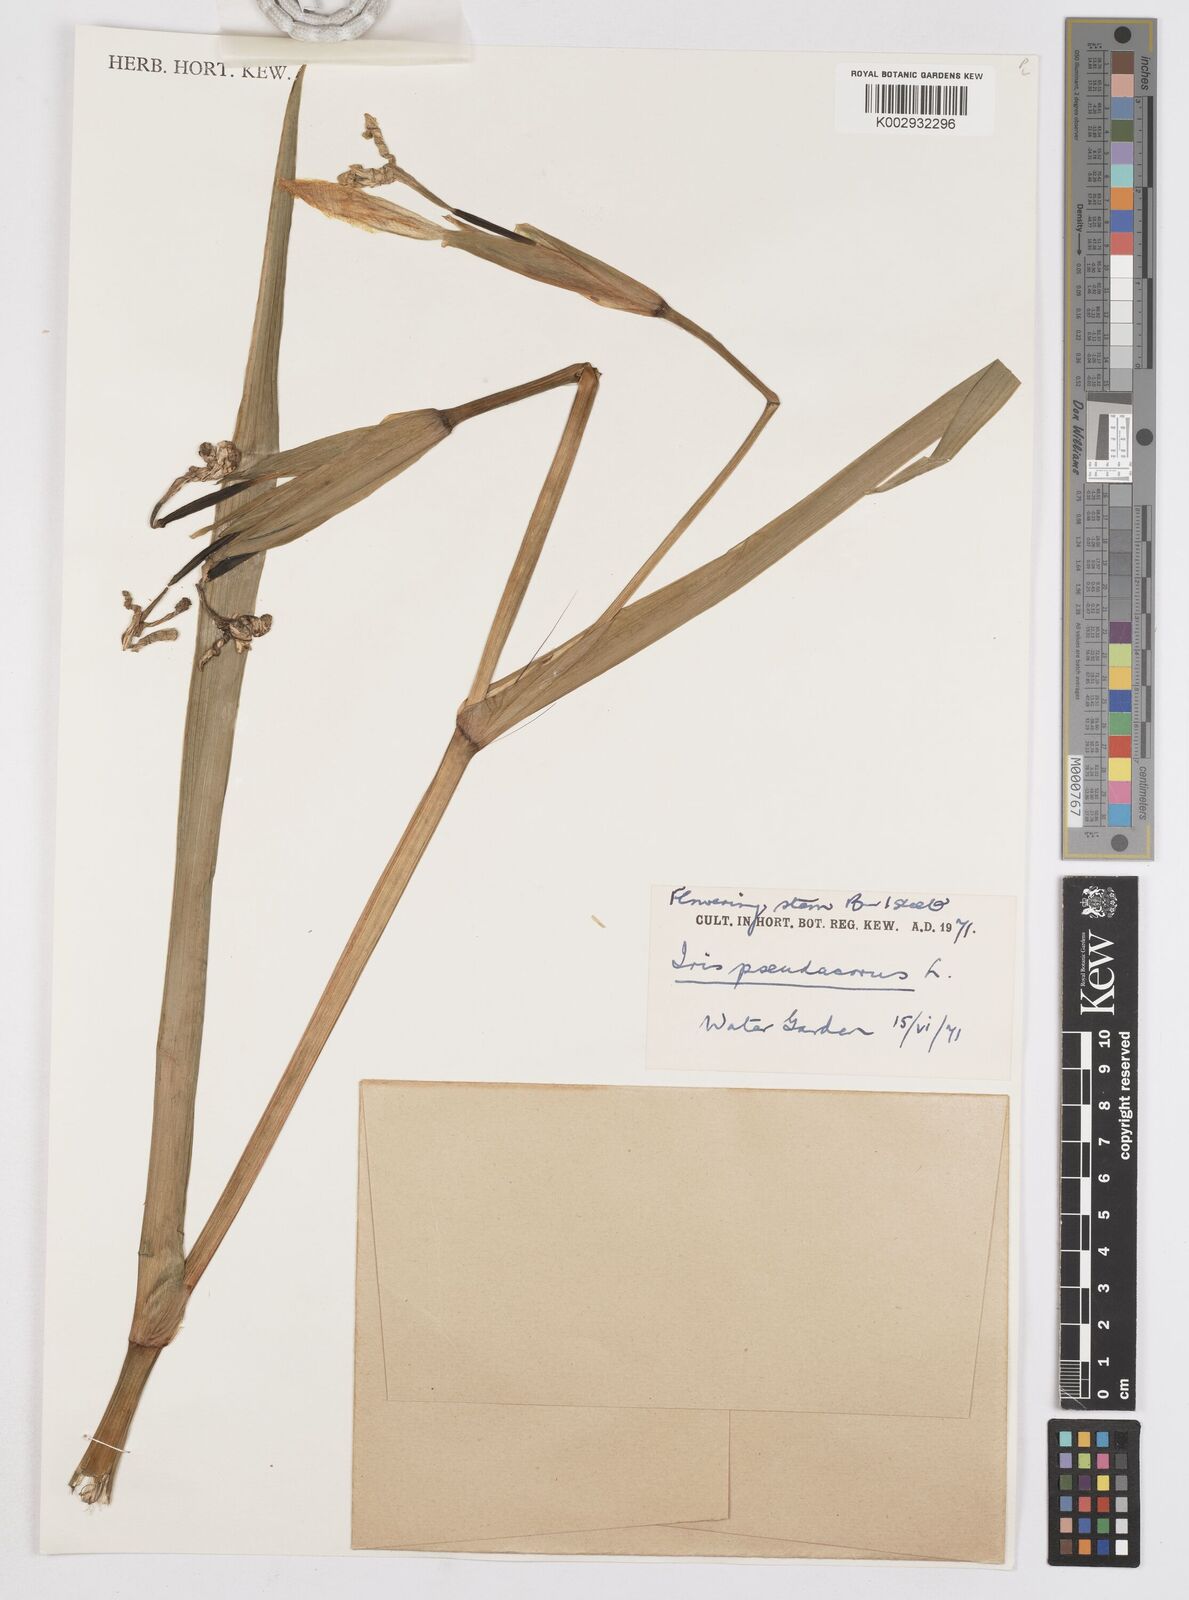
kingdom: Plantae
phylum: Tracheophyta
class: Liliopsida
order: Asparagales
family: Iridaceae
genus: Iris
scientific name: Iris pseudacorus
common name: Yellow flag
